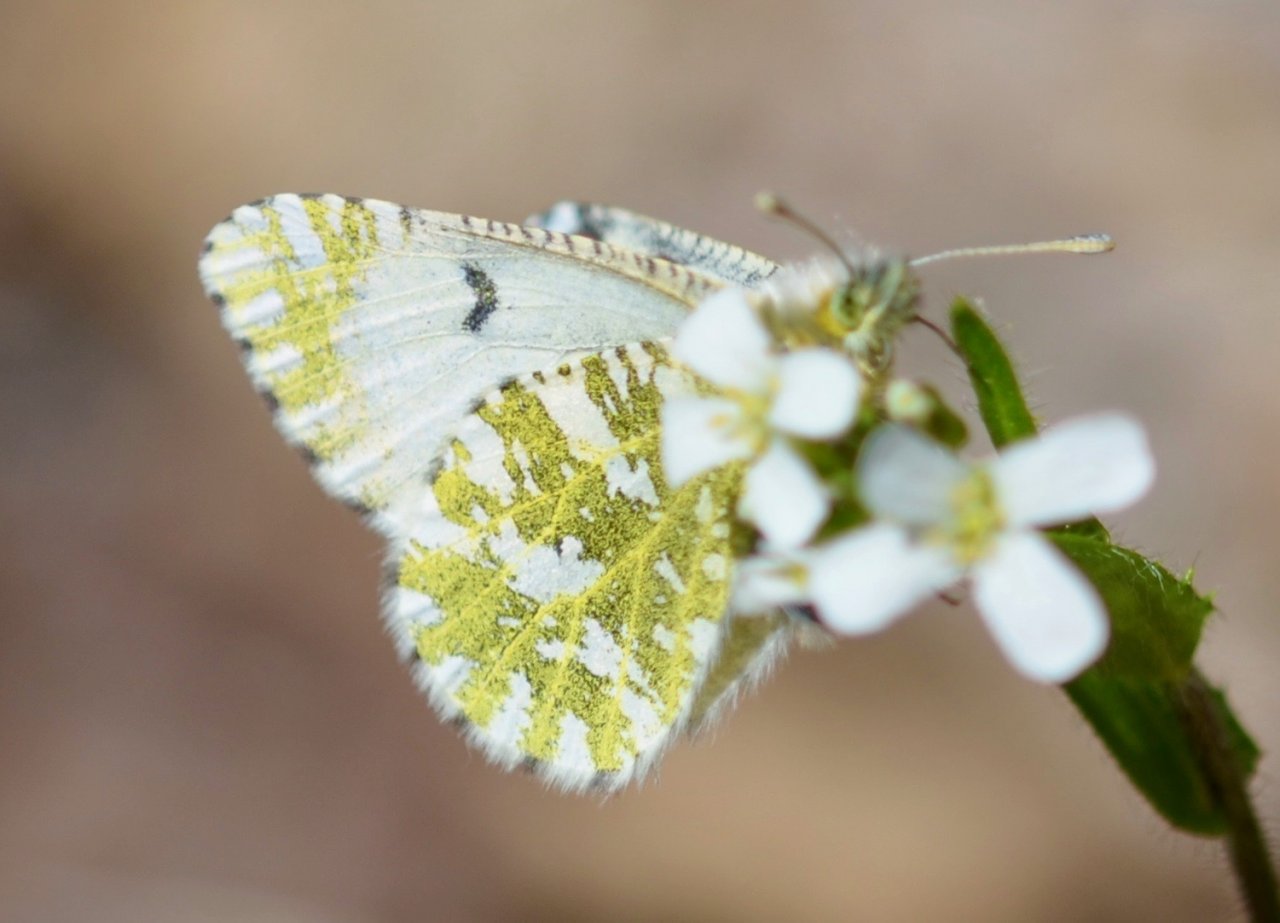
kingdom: Animalia
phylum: Arthropoda
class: Insecta
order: Lepidoptera
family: Pieridae
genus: Euchloe
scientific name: Euchloe ausonides
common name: Large Marble
